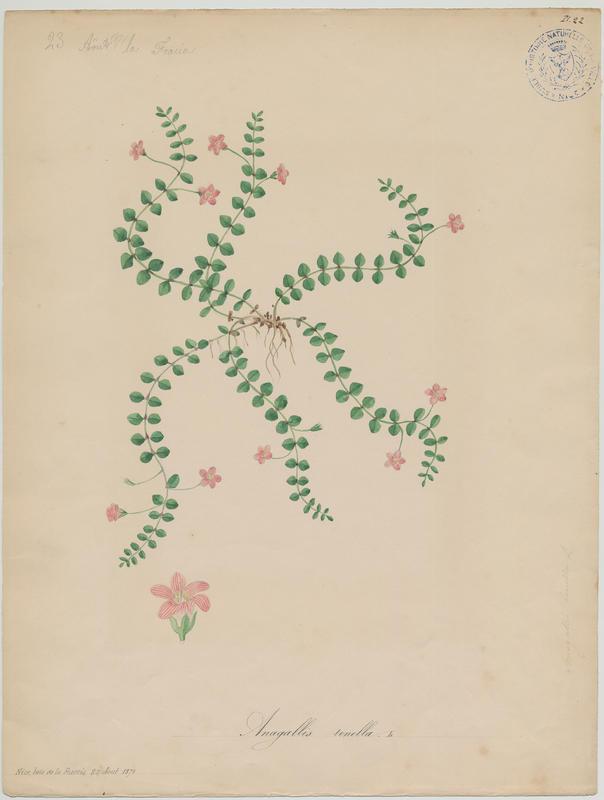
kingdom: Plantae
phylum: Tracheophyta
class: Magnoliopsida
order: Ericales
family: Primulaceae
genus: Lysimachia
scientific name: Lysimachia tenella
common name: European bog pimpernel
